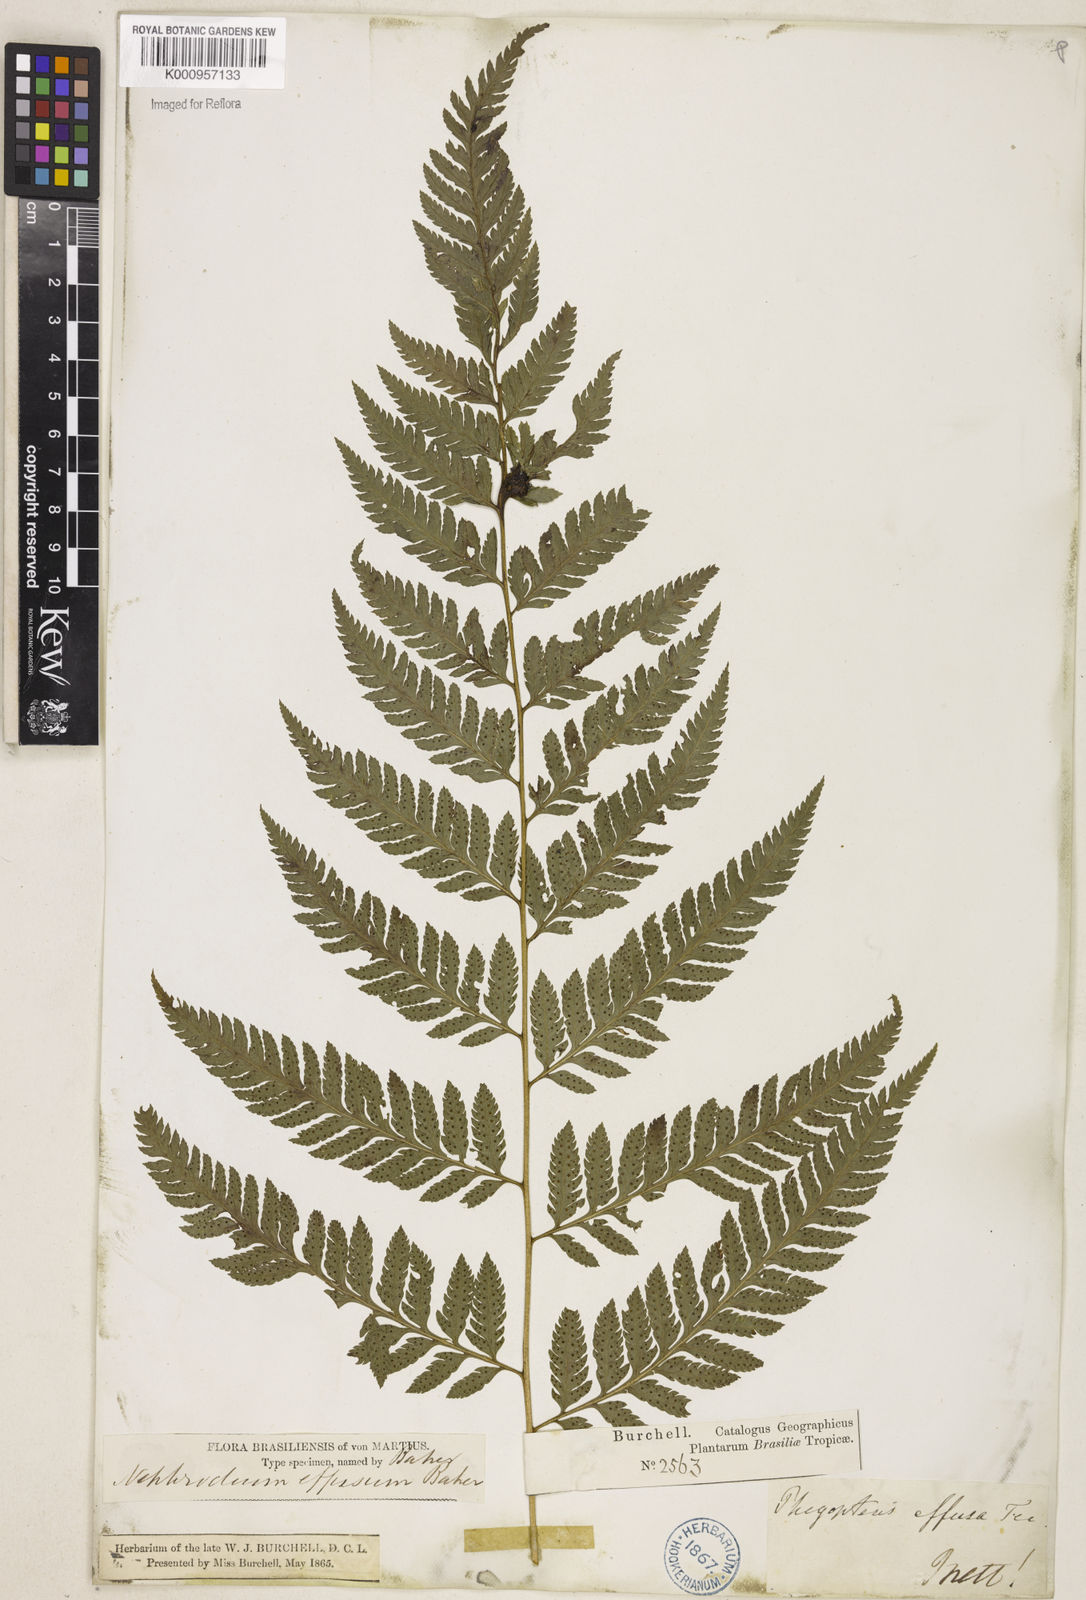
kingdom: Plantae
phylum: Tracheophyta
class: Polypodiopsida
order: Polypodiales
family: Dryopteridaceae
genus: Parapolystichum
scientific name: Parapolystichum effusum
